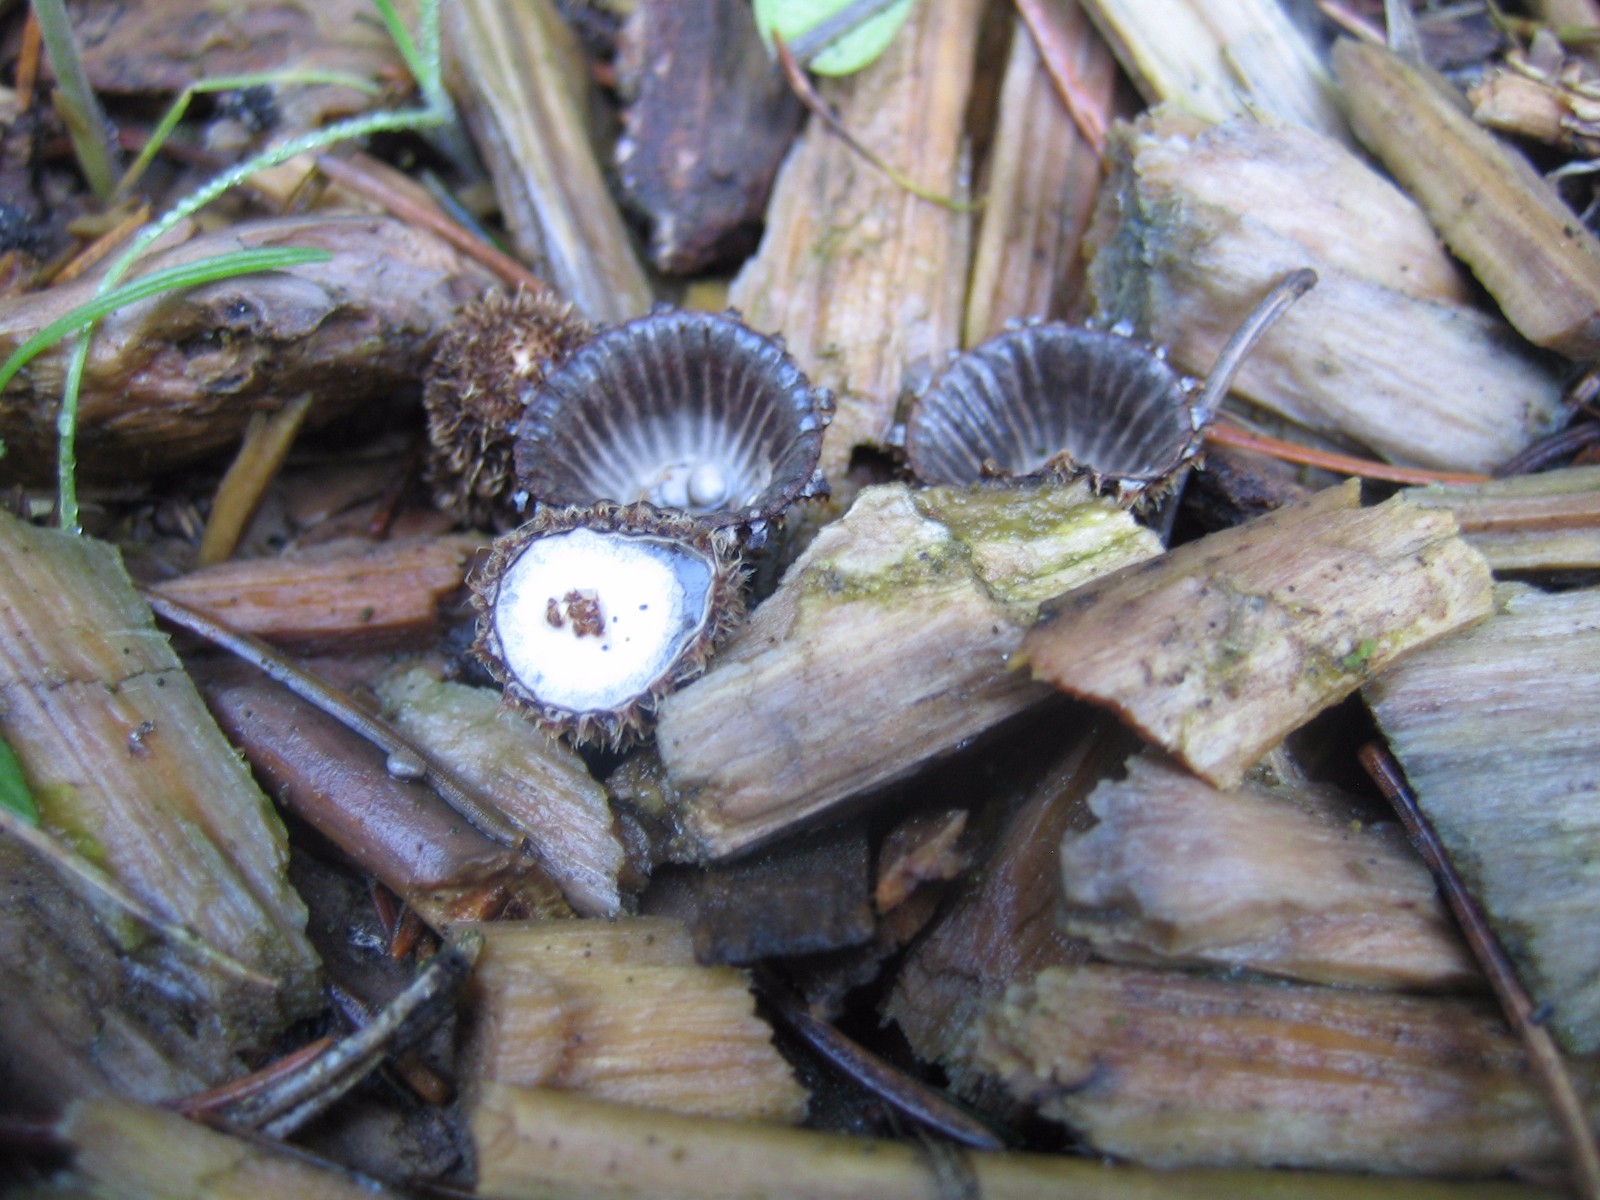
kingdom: Fungi
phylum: Basidiomycota
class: Agaricomycetes
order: Agaricales
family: Agaricaceae
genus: Cyathus
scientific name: Cyathus striatus
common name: stribet redesvamp
